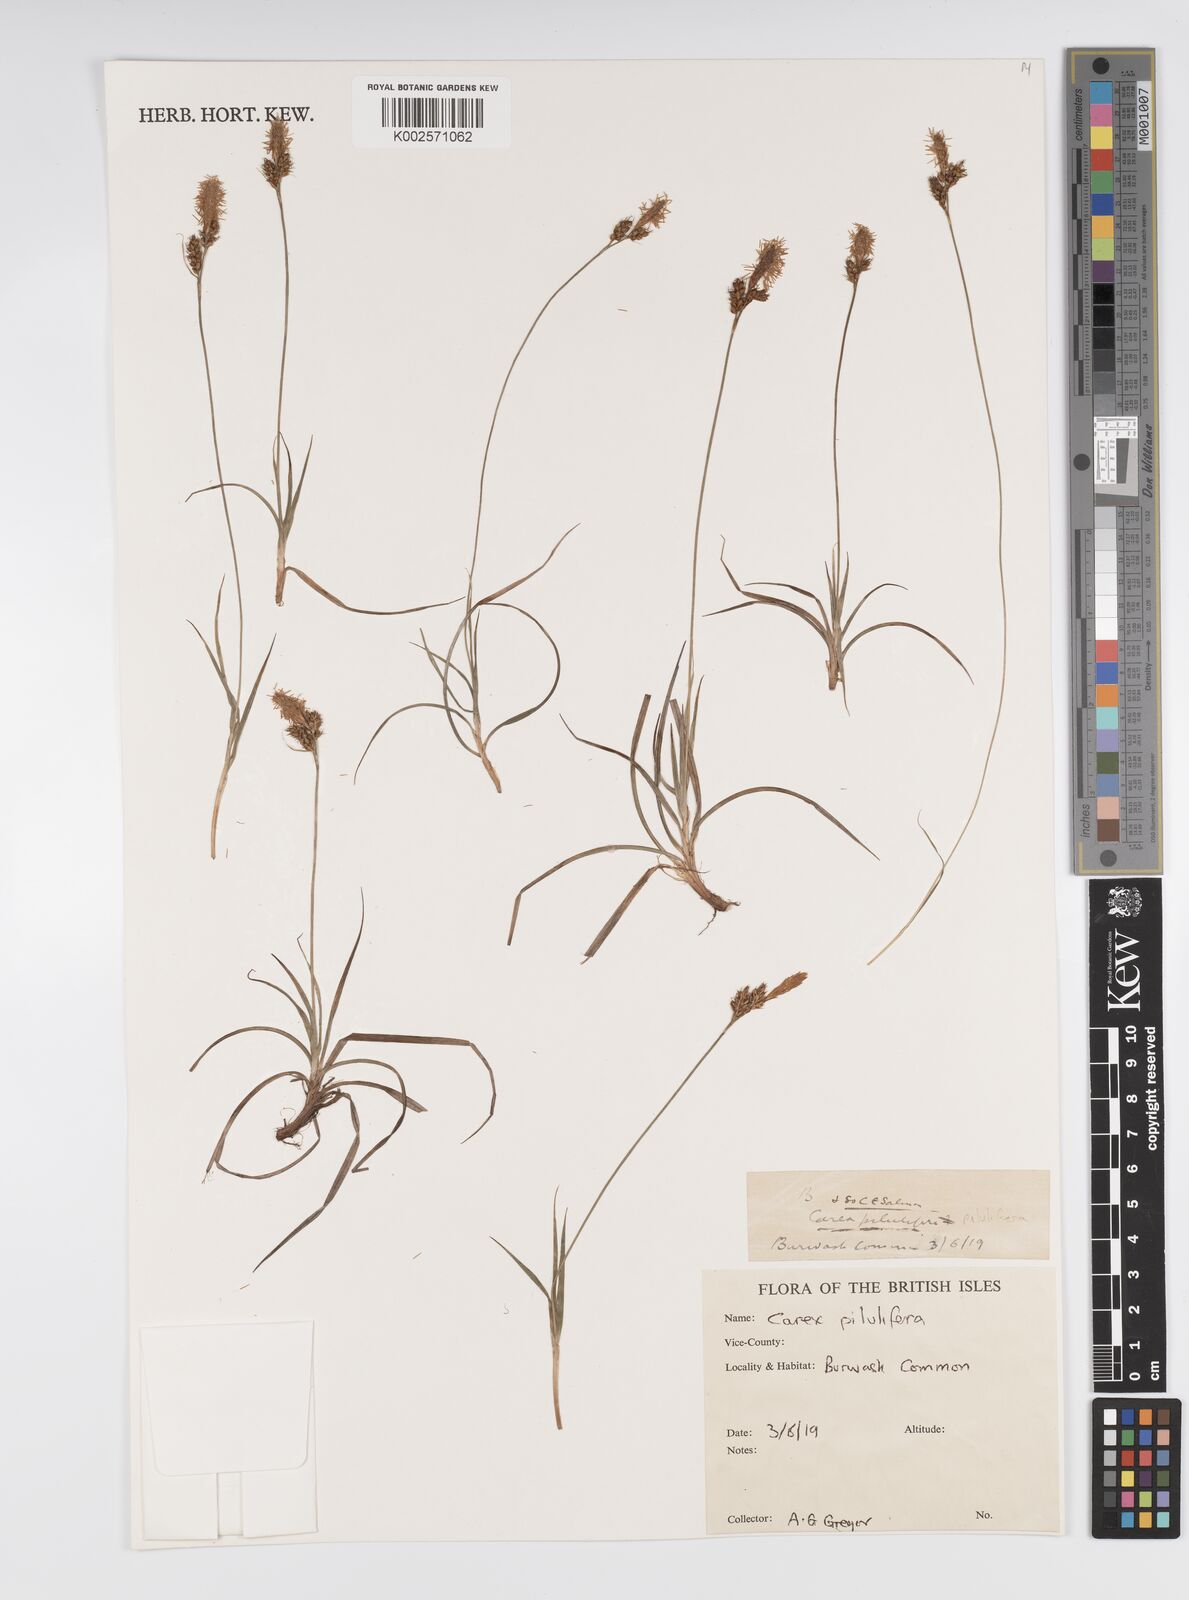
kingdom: Plantae
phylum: Tracheophyta
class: Liliopsida
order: Poales
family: Cyperaceae
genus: Carex
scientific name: Carex pilulifera
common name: Pill sedge
